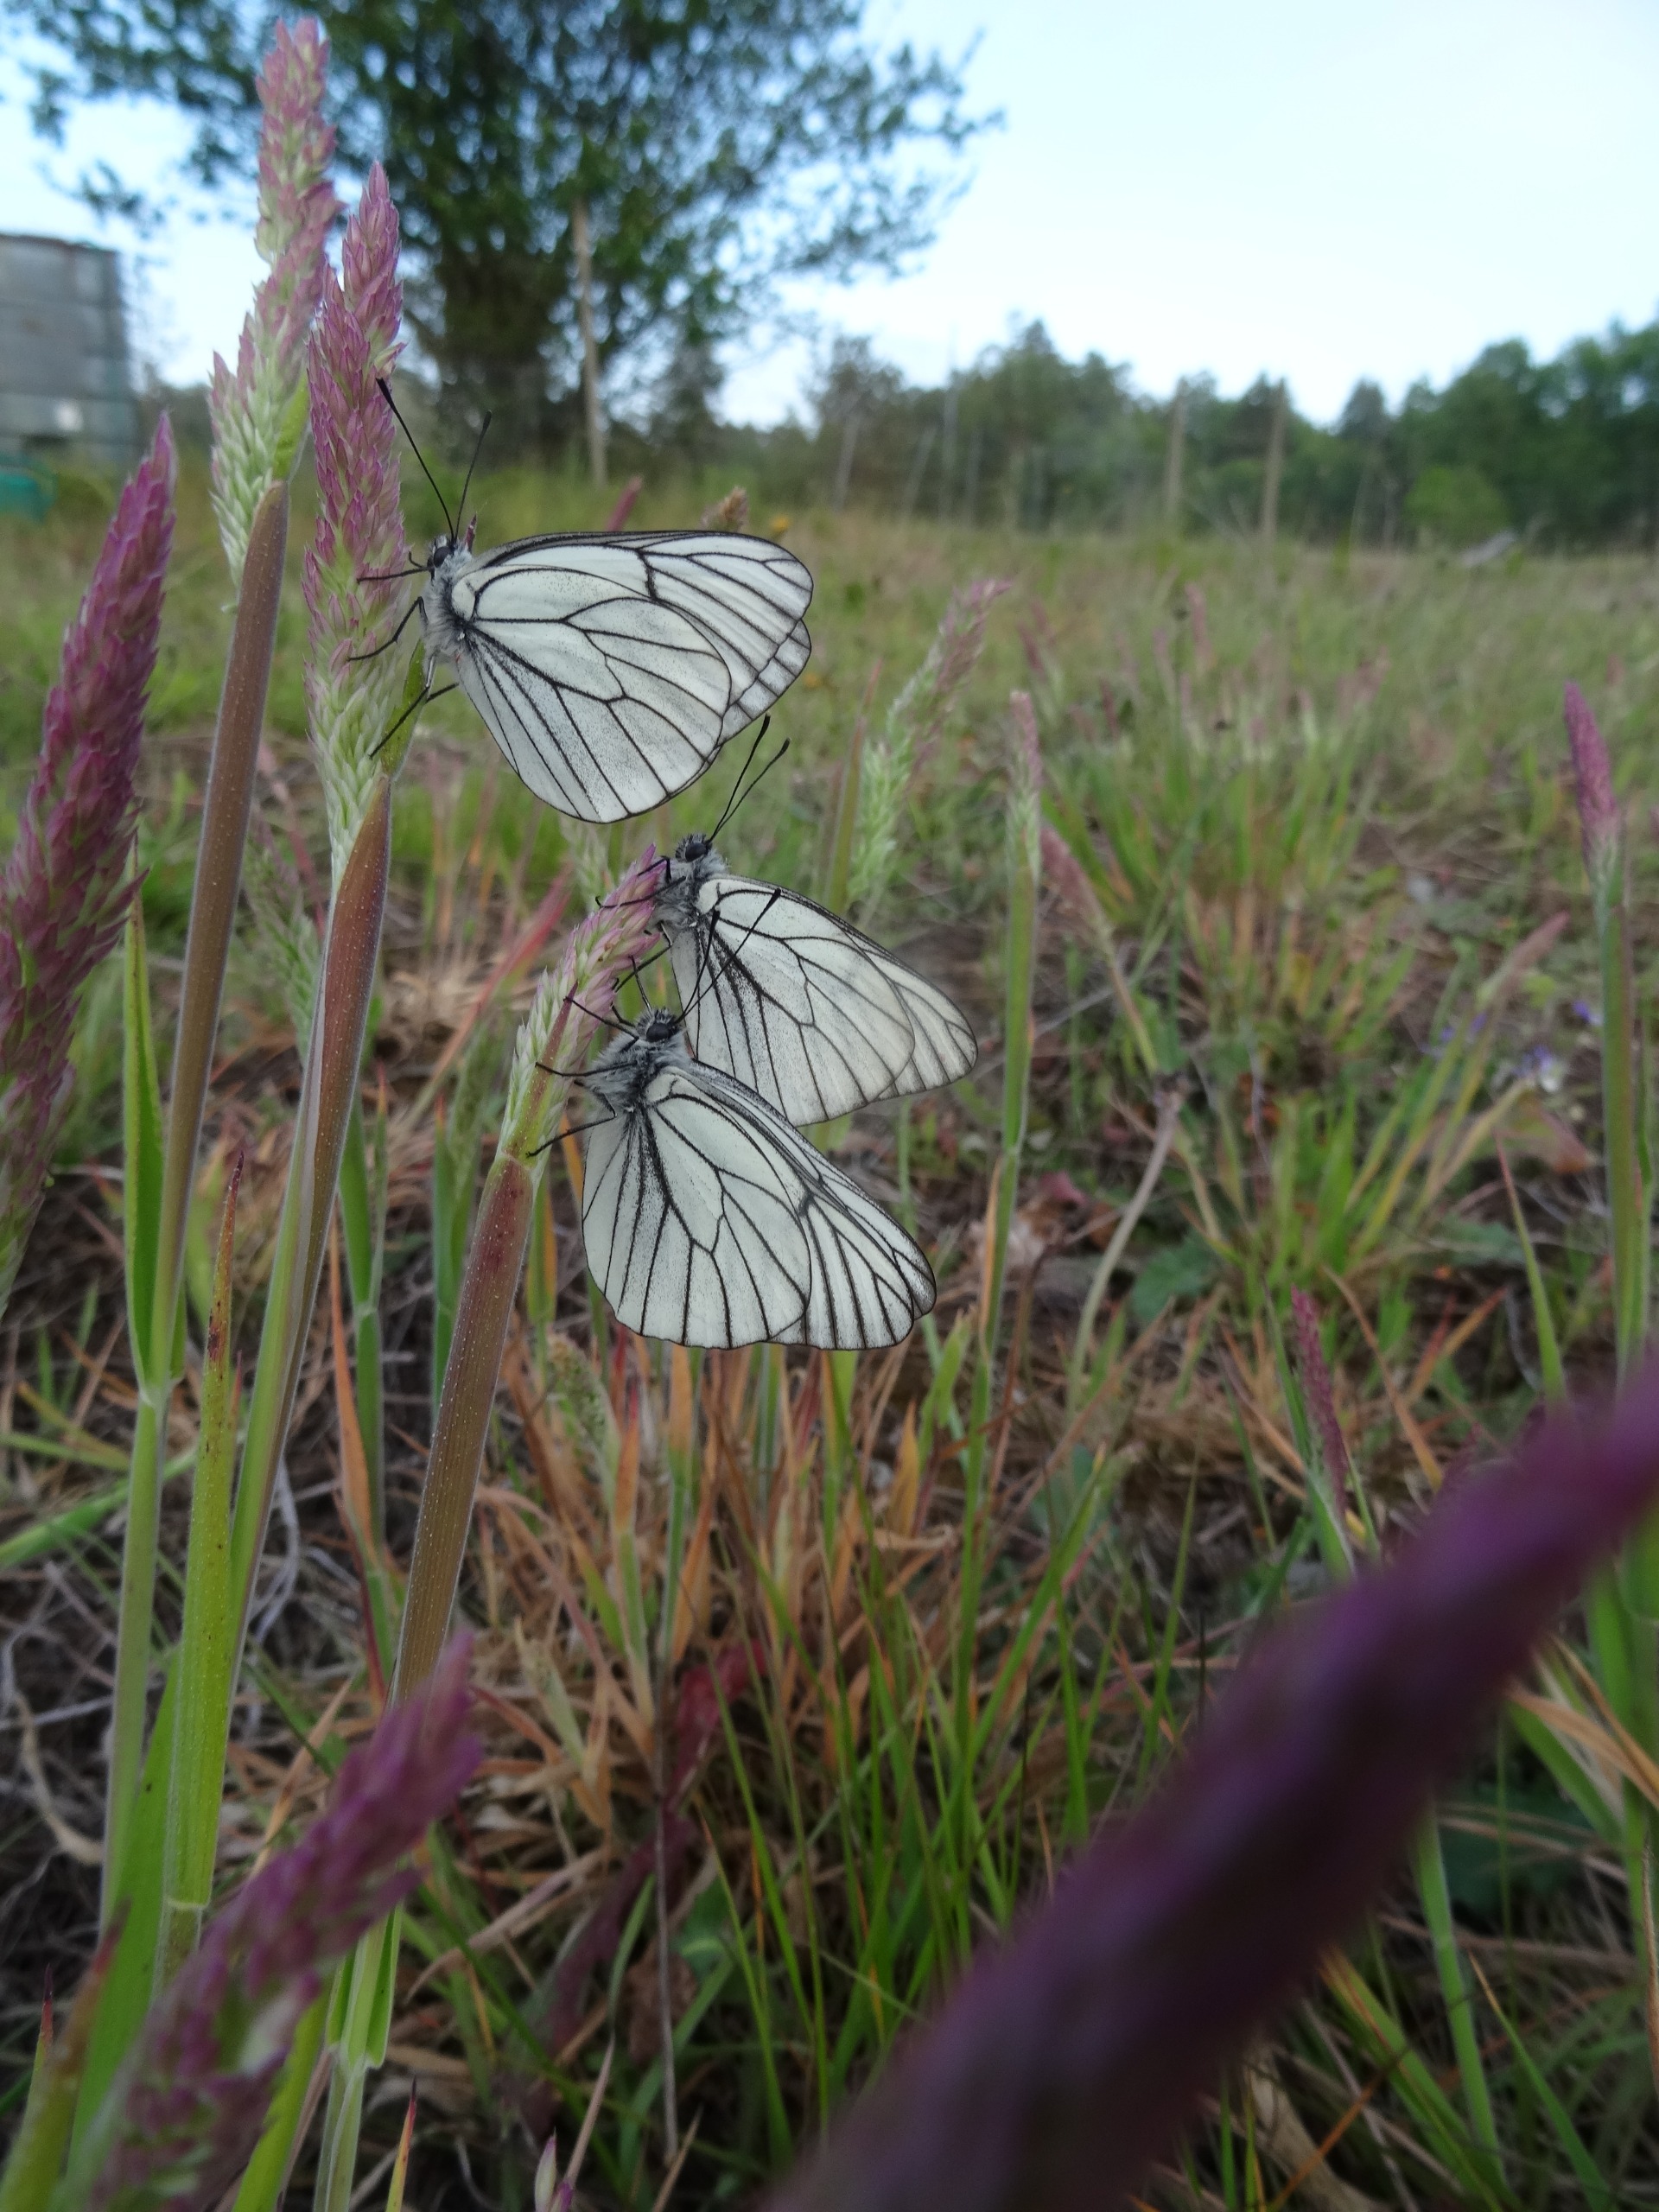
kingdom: Animalia
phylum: Arthropoda
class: Insecta
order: Lepidoptera
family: Pieridae
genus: Aporia
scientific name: Aporia crataegi
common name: Sortåret hvidvinge
